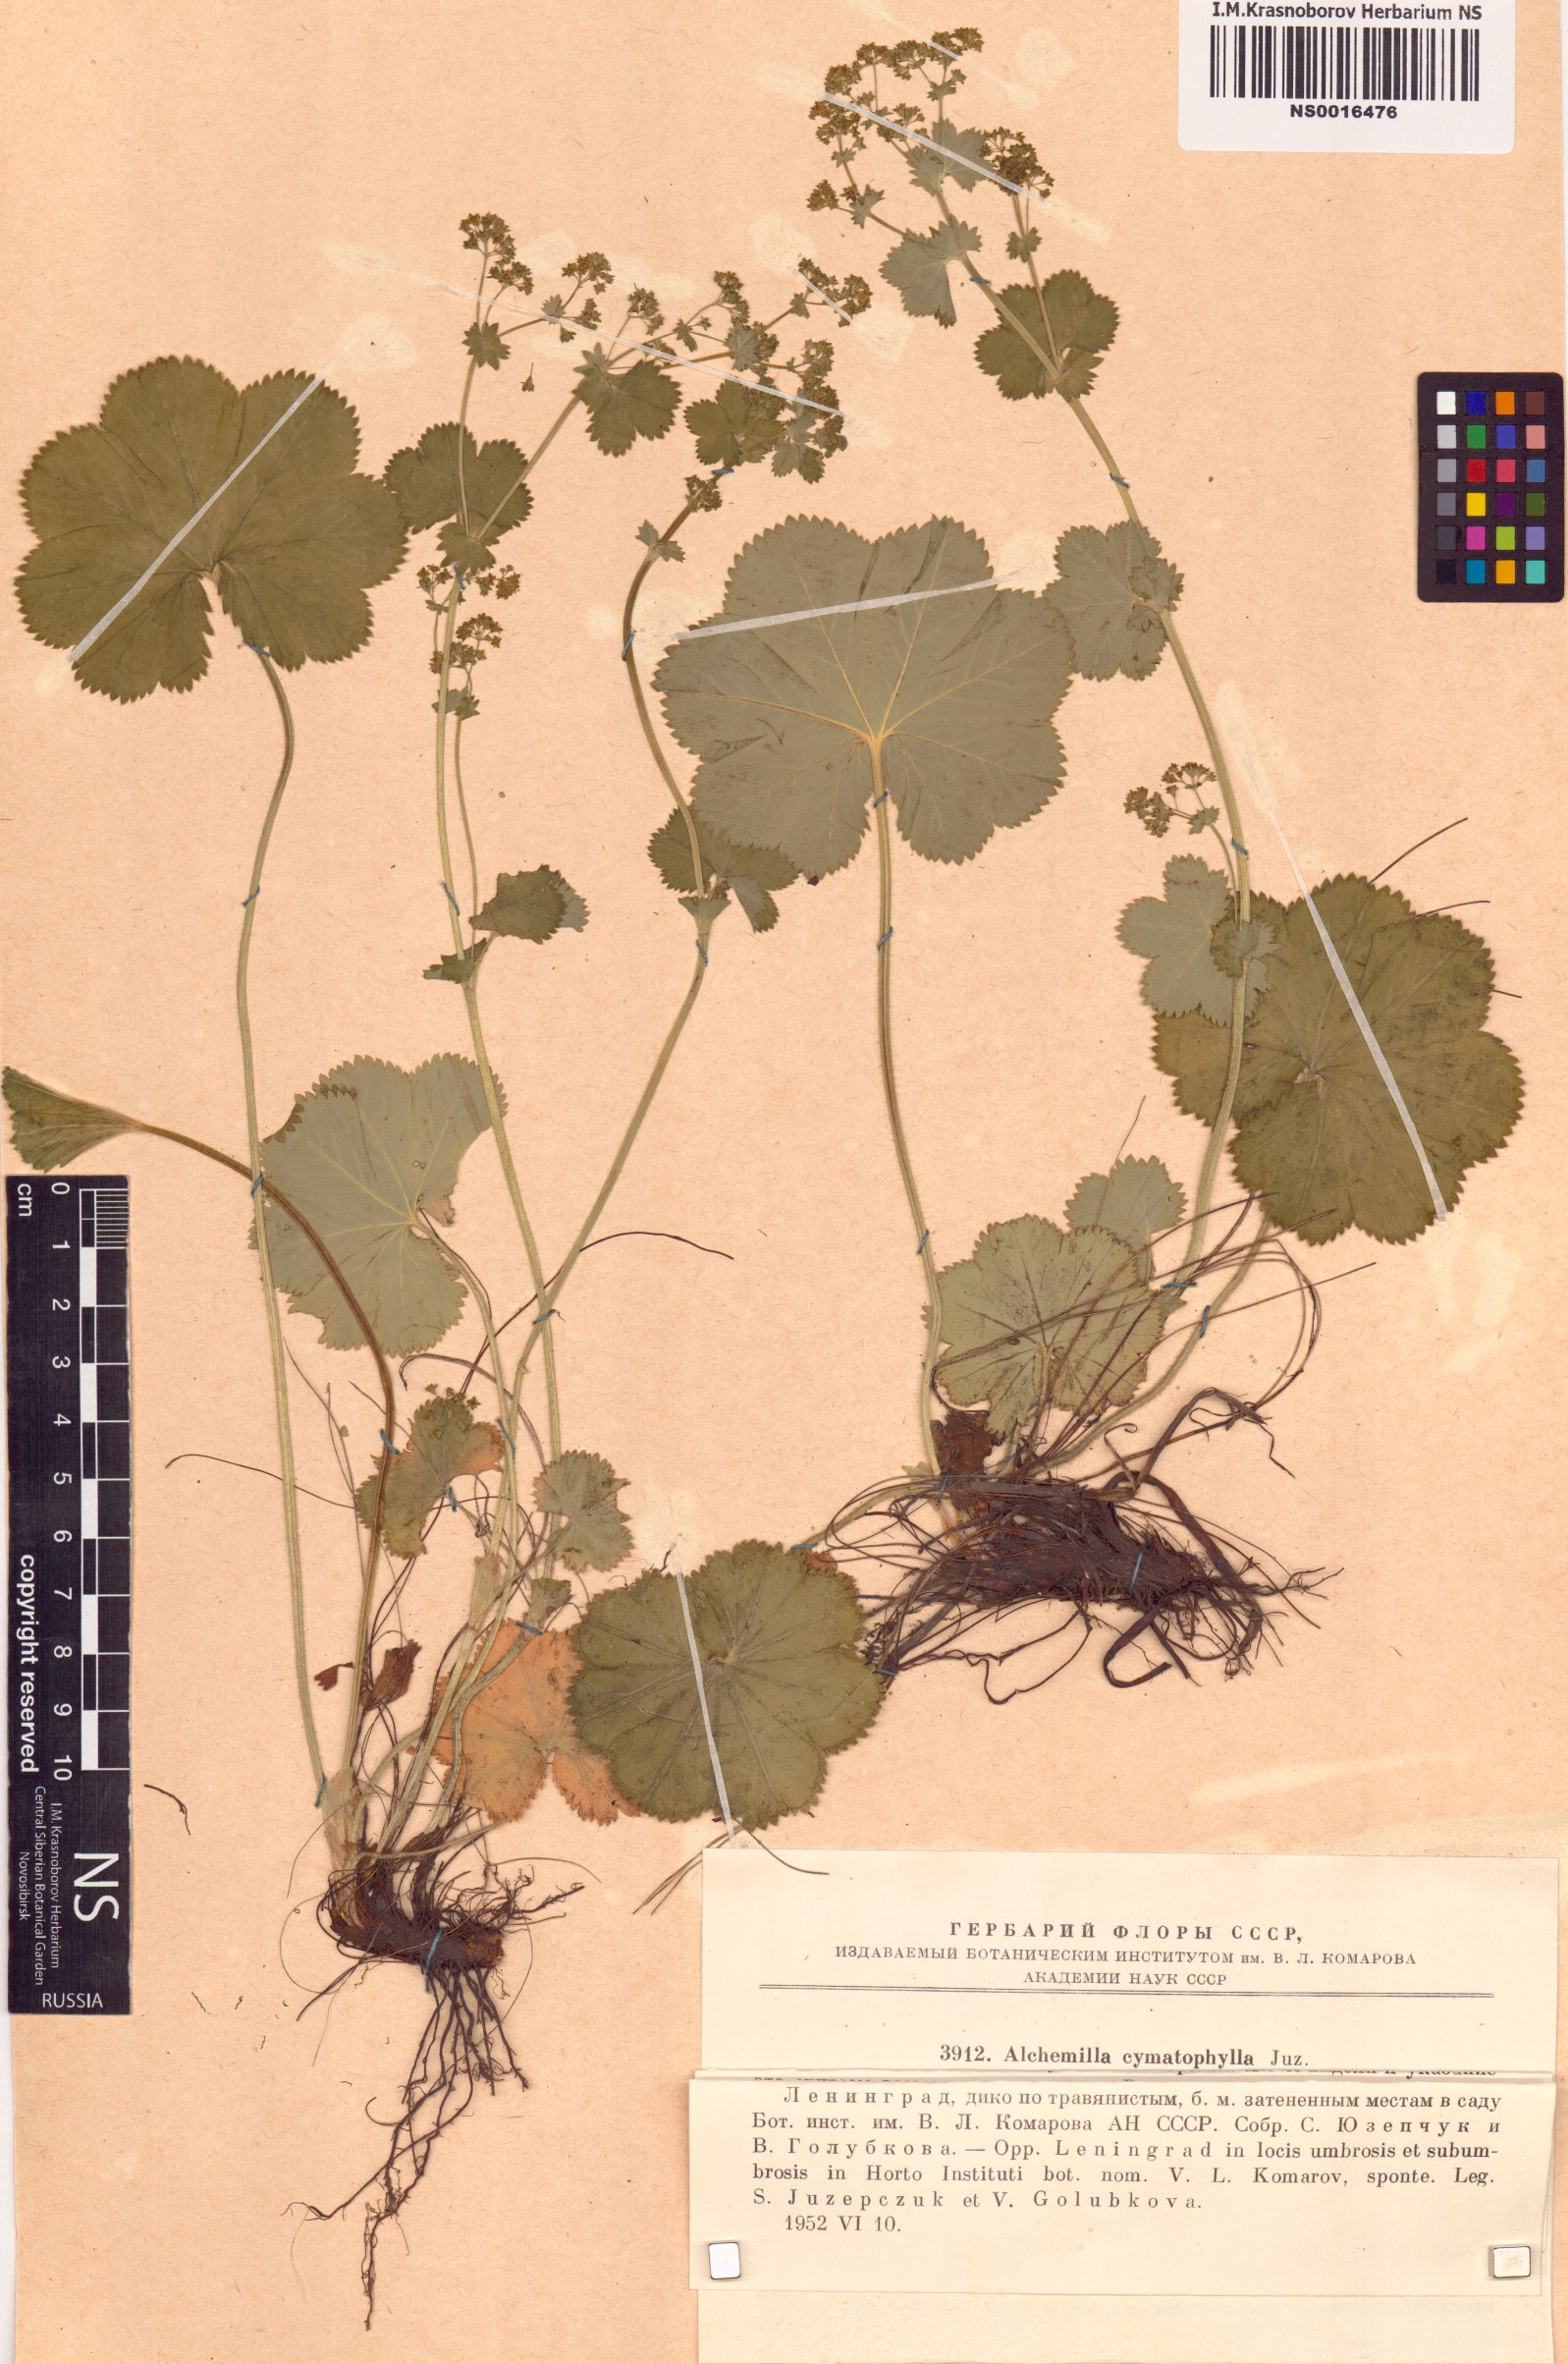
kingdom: Plantae
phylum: Tracheophyta
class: Magnoliopsida
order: Rosales
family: Rosaceae
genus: Alchemilla
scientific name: Alchemilla cymatophylla
